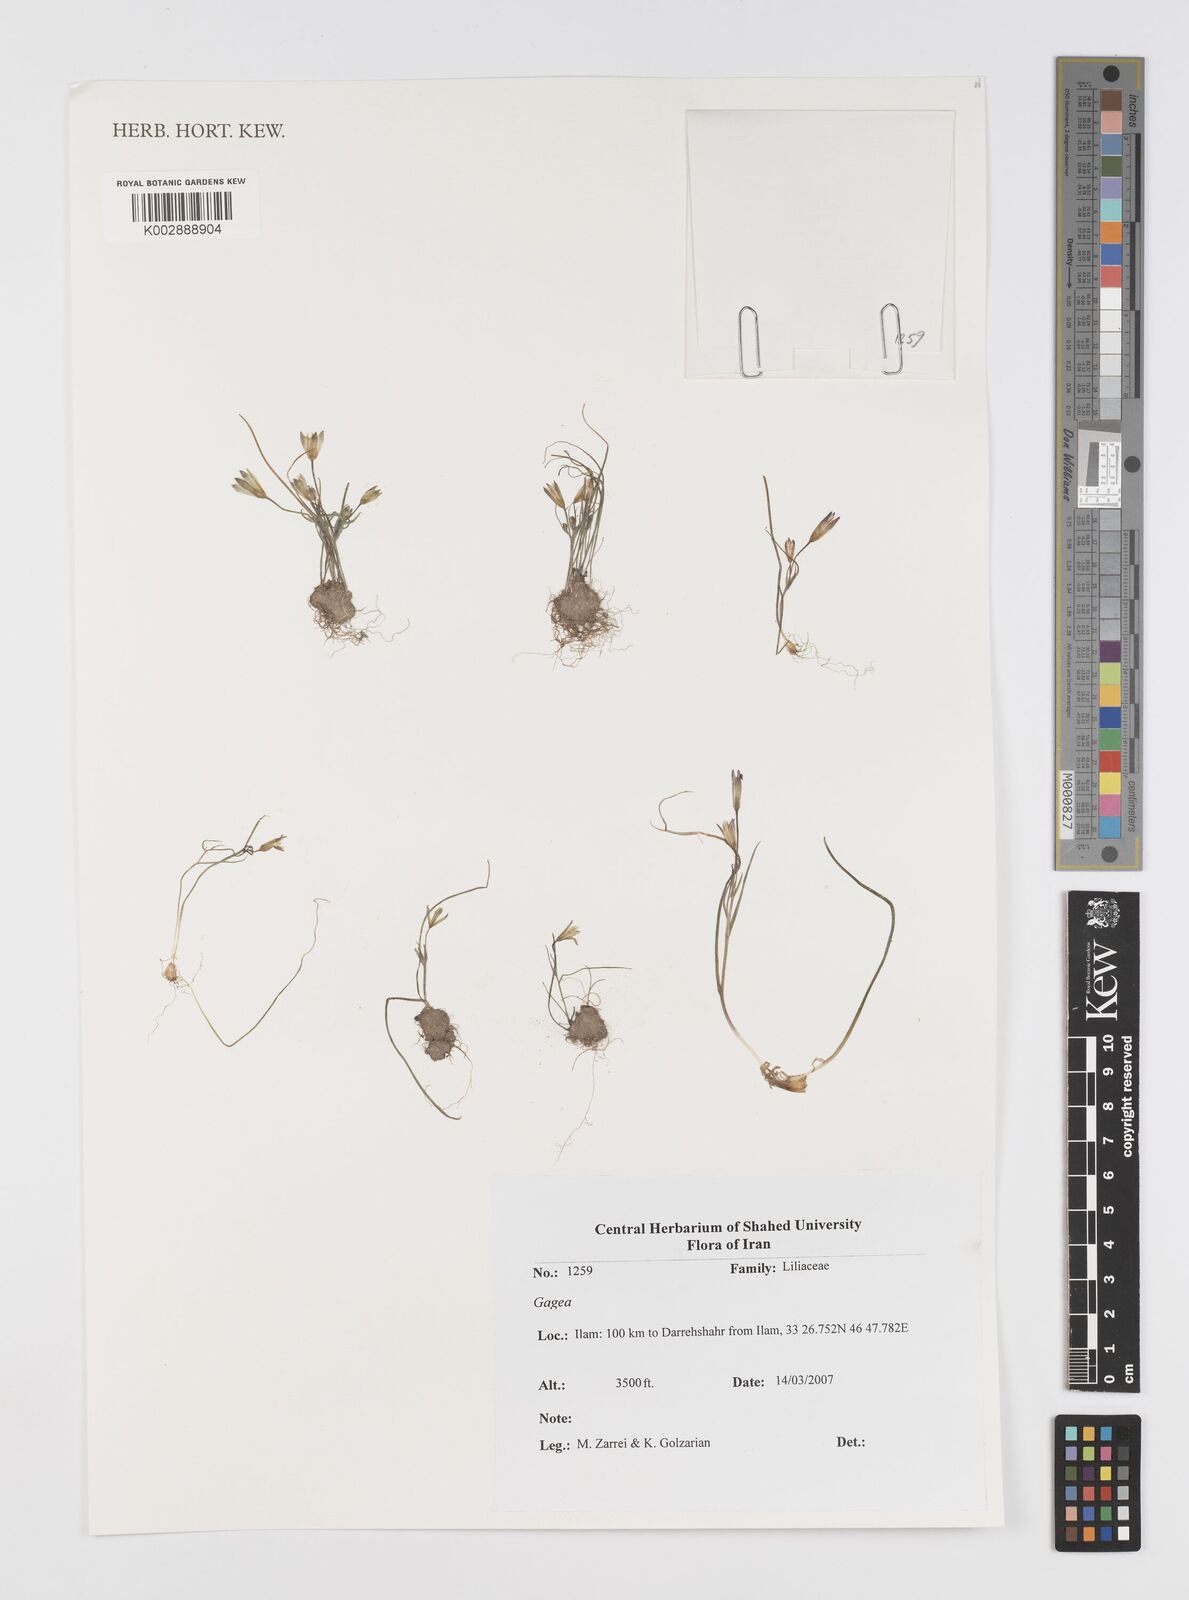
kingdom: Plantae
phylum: Tracheophyta
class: Liliopsida
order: Liliales
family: Liliaceae
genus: Gagea
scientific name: Gagea
